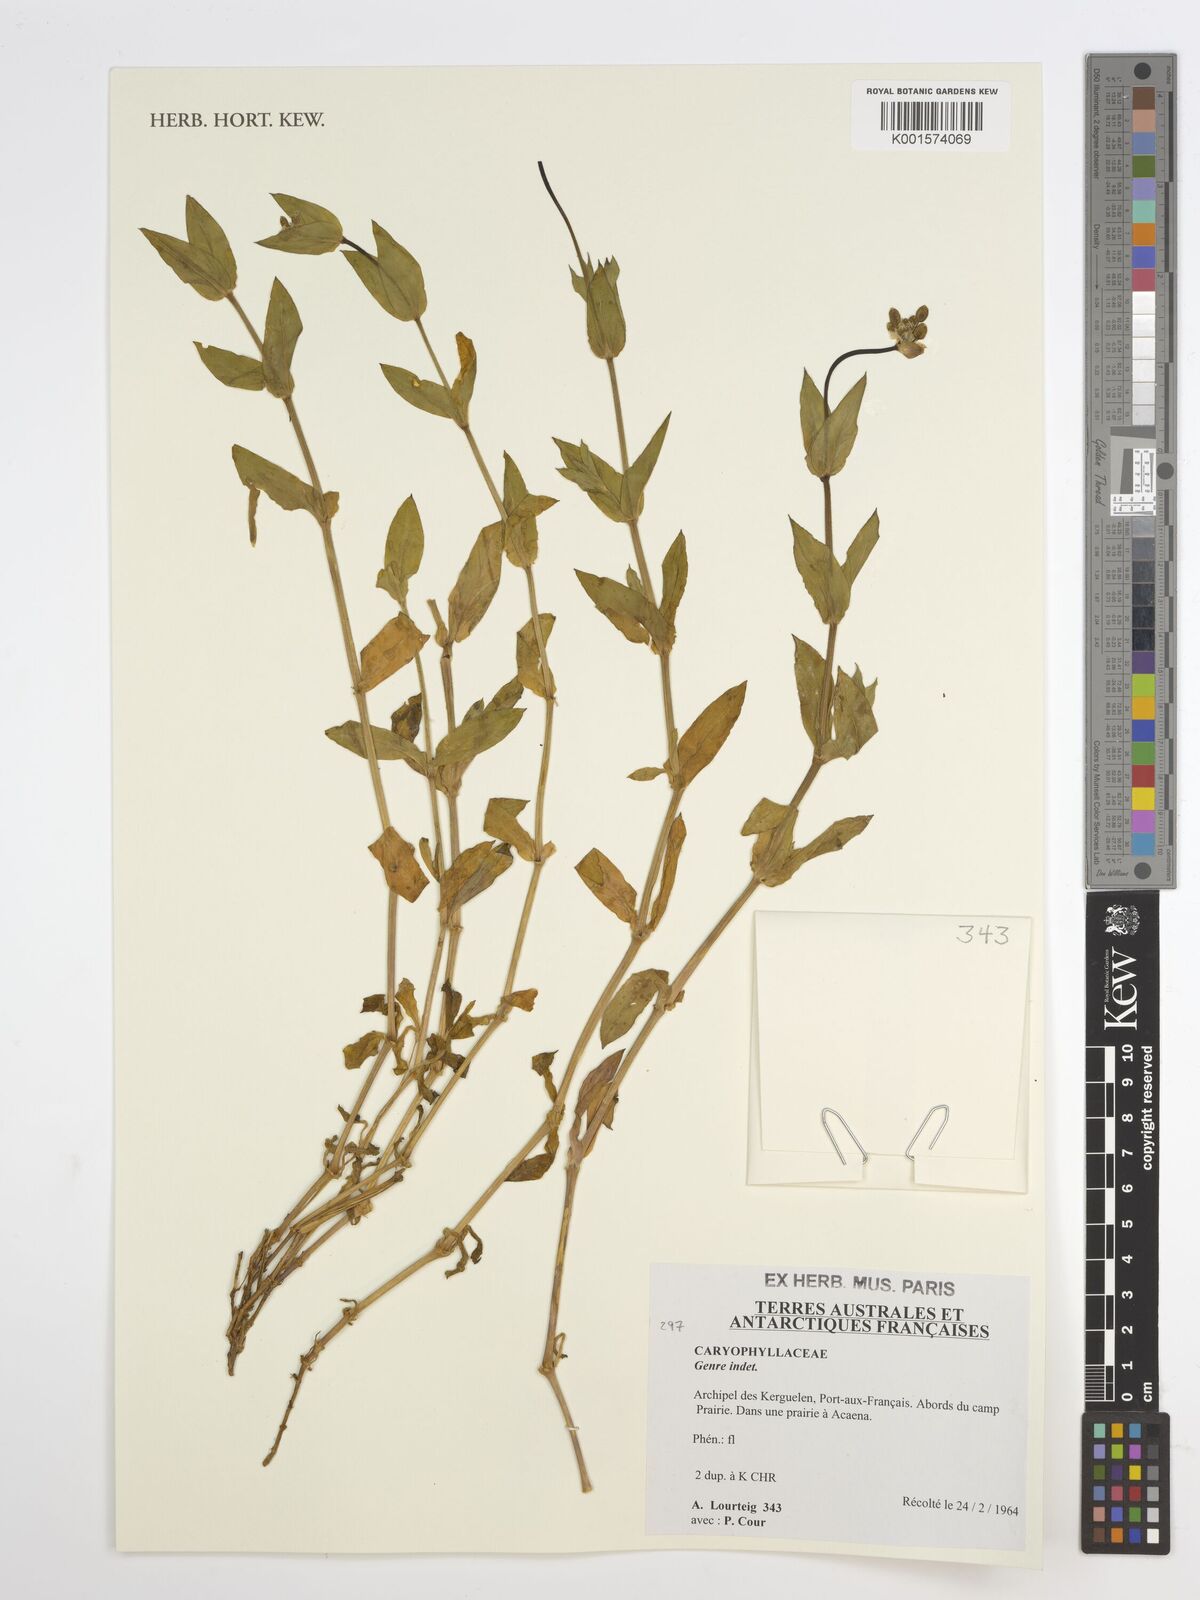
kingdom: Plantae
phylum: Tracheophyta
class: Magnoliopsida
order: Caryophyllales
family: Caryophyllaceae
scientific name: Caryophyllaceae
